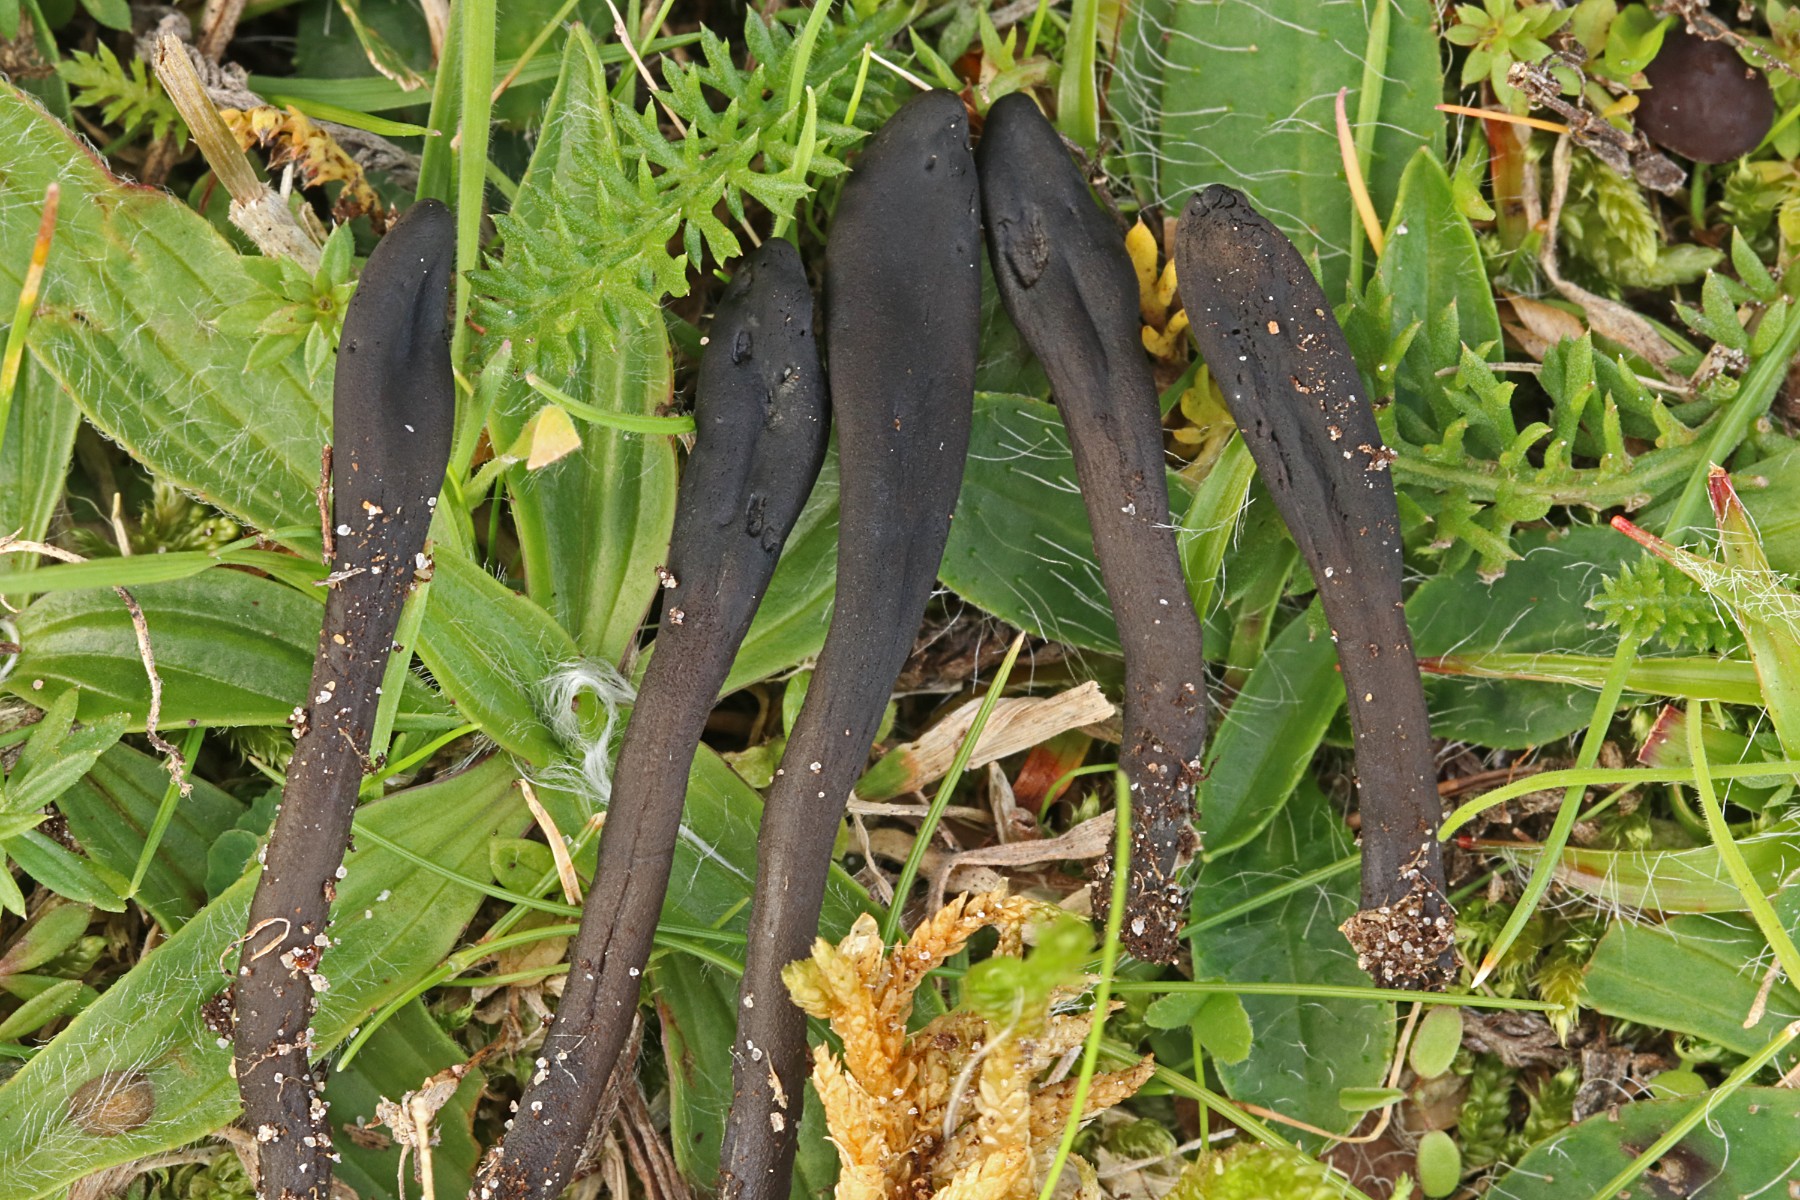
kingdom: Fungi
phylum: Ascomycota
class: Geoglossomycetes
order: Geoglossales
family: Geoglossaceae
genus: Hemileucoglossum
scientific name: Hemileucoglossum elongatum
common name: småsporet jordtunge
